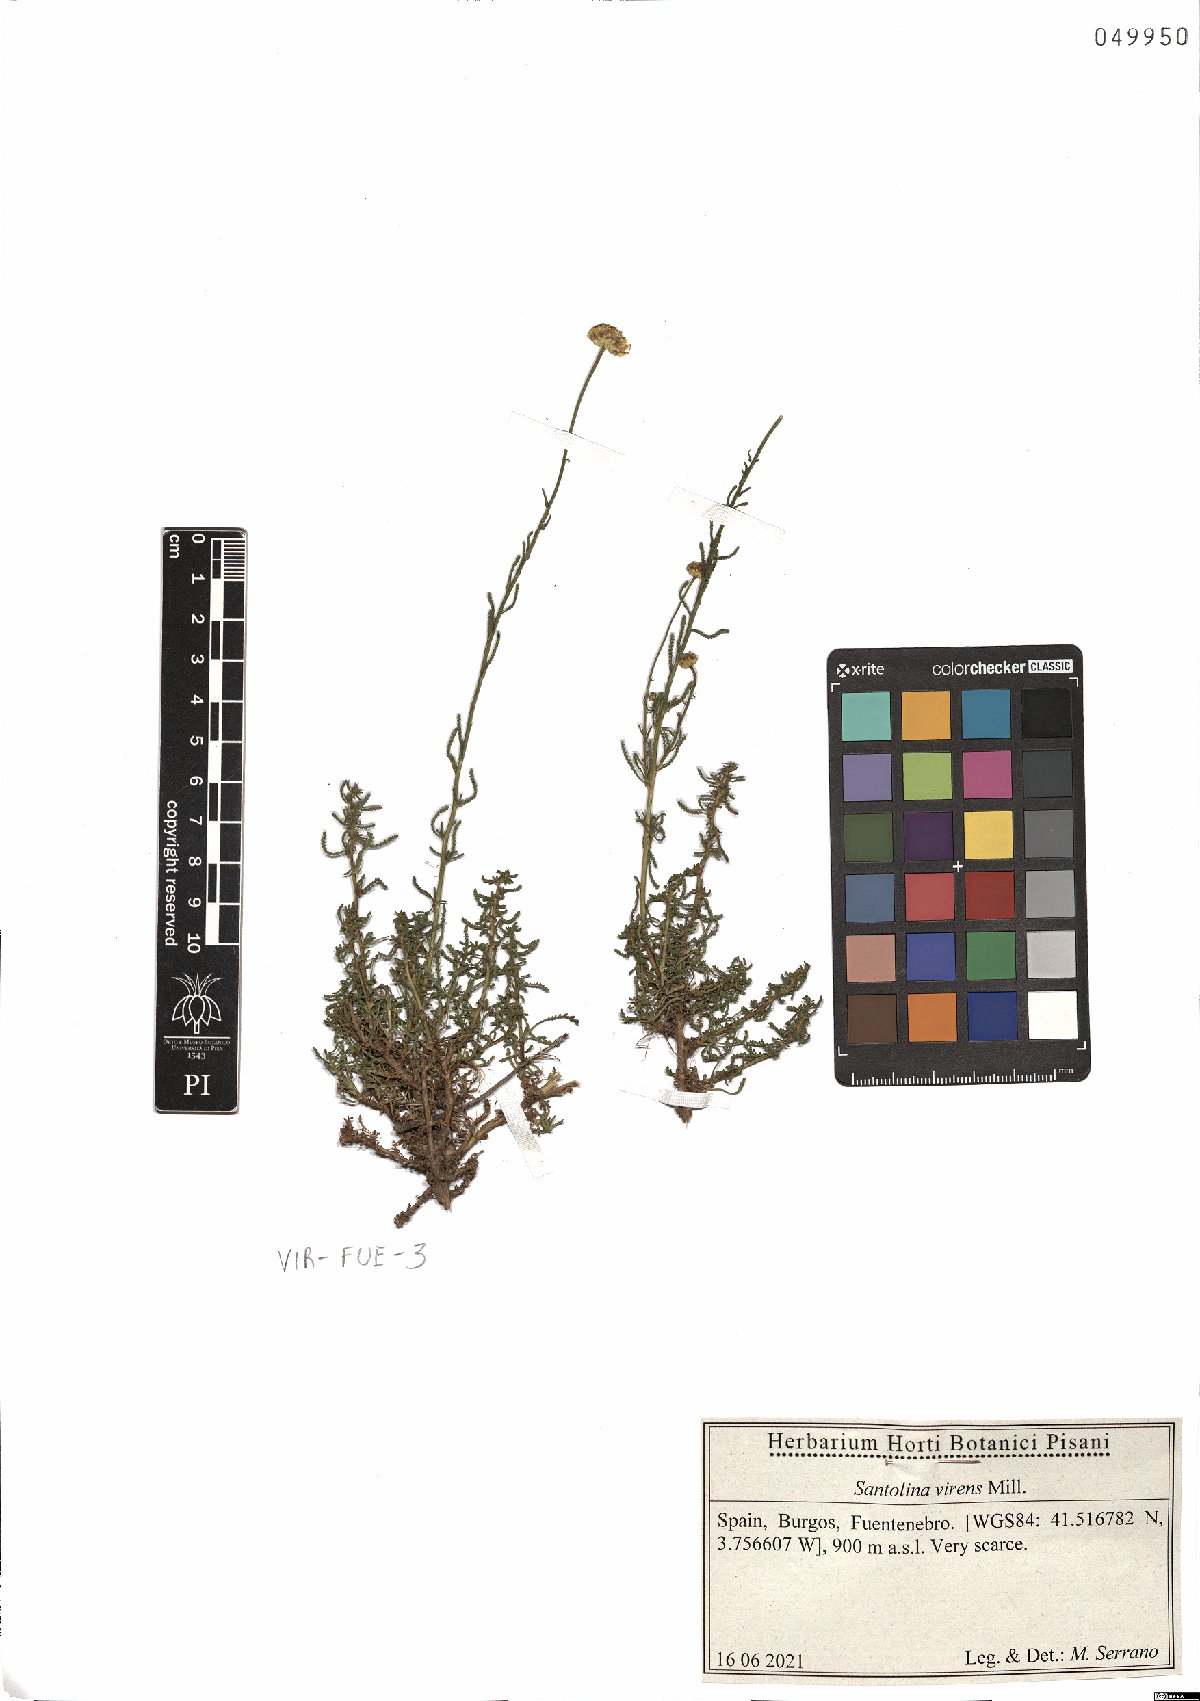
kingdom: Plantae
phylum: Tracheophyta
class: Magnoliopsida
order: Asterales
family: Asteraceae
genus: Santolina
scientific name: Santolina virens
